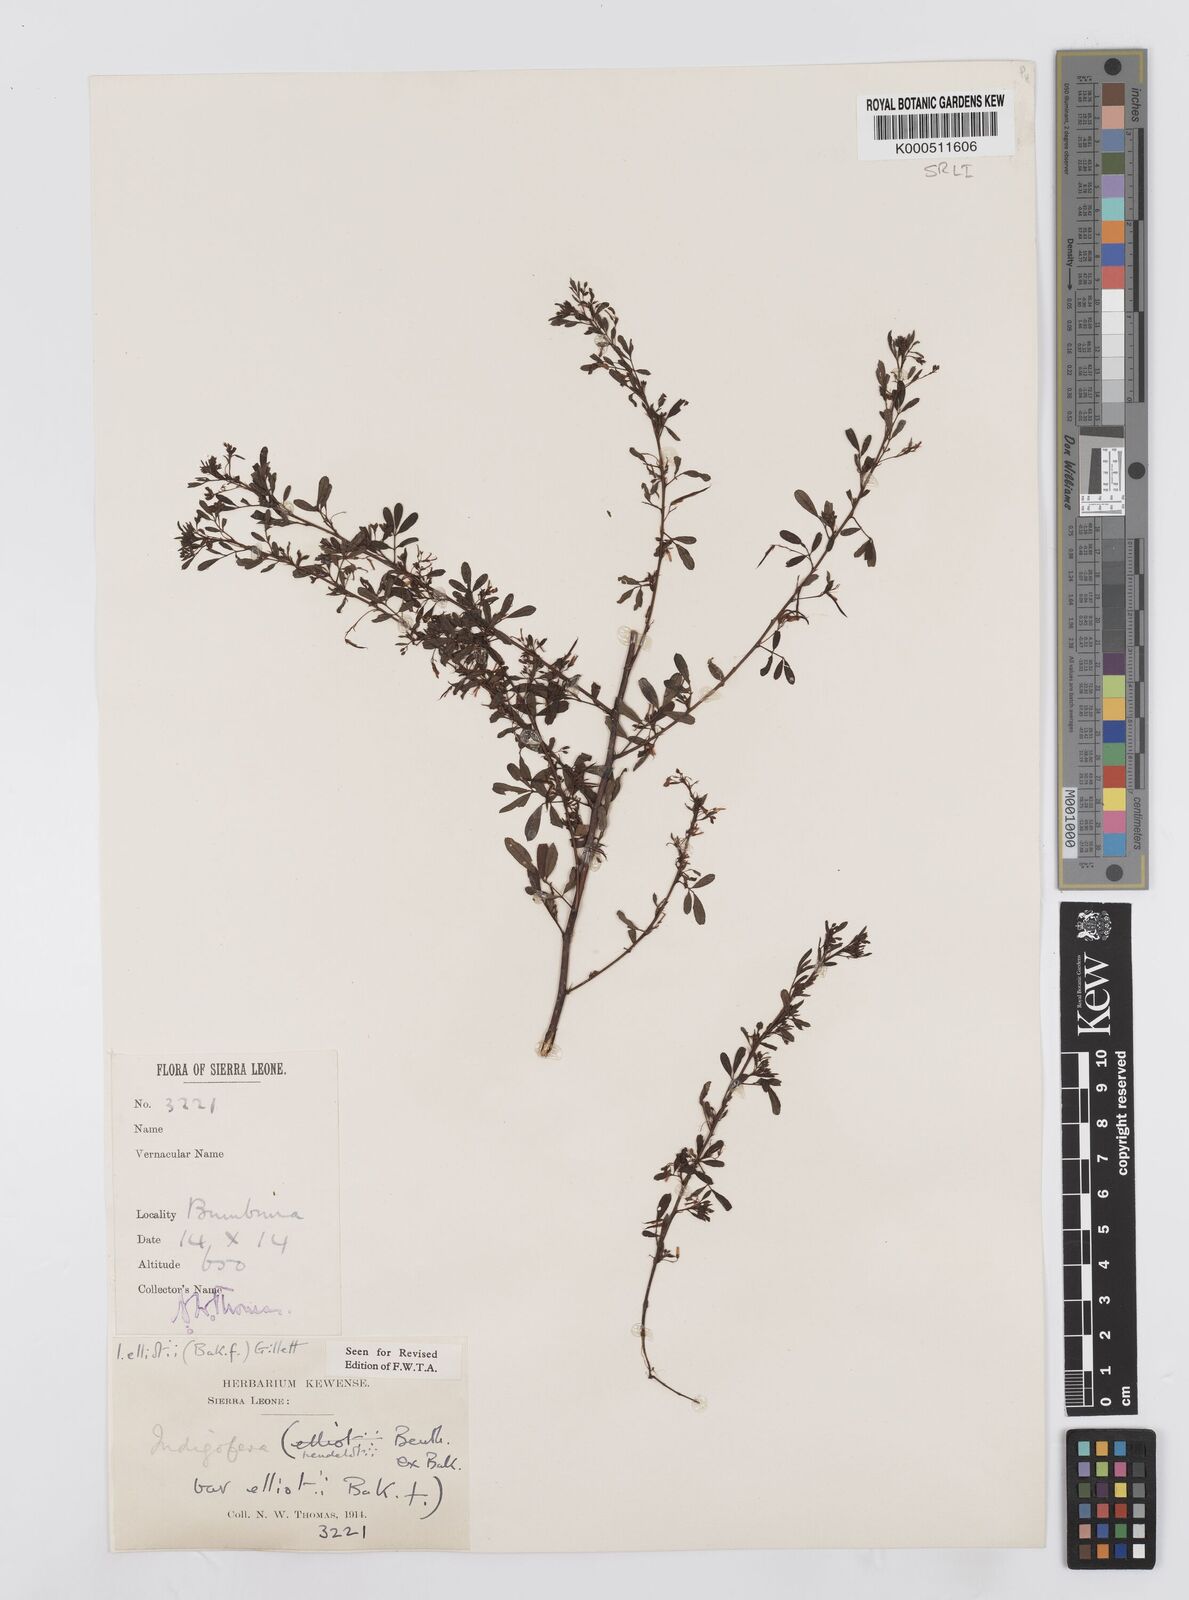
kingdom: Plantae
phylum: Tracheophyta
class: Magnoliopsida
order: Fabales
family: Fabaceae
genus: Indigofera
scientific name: Indigofera elliotii
